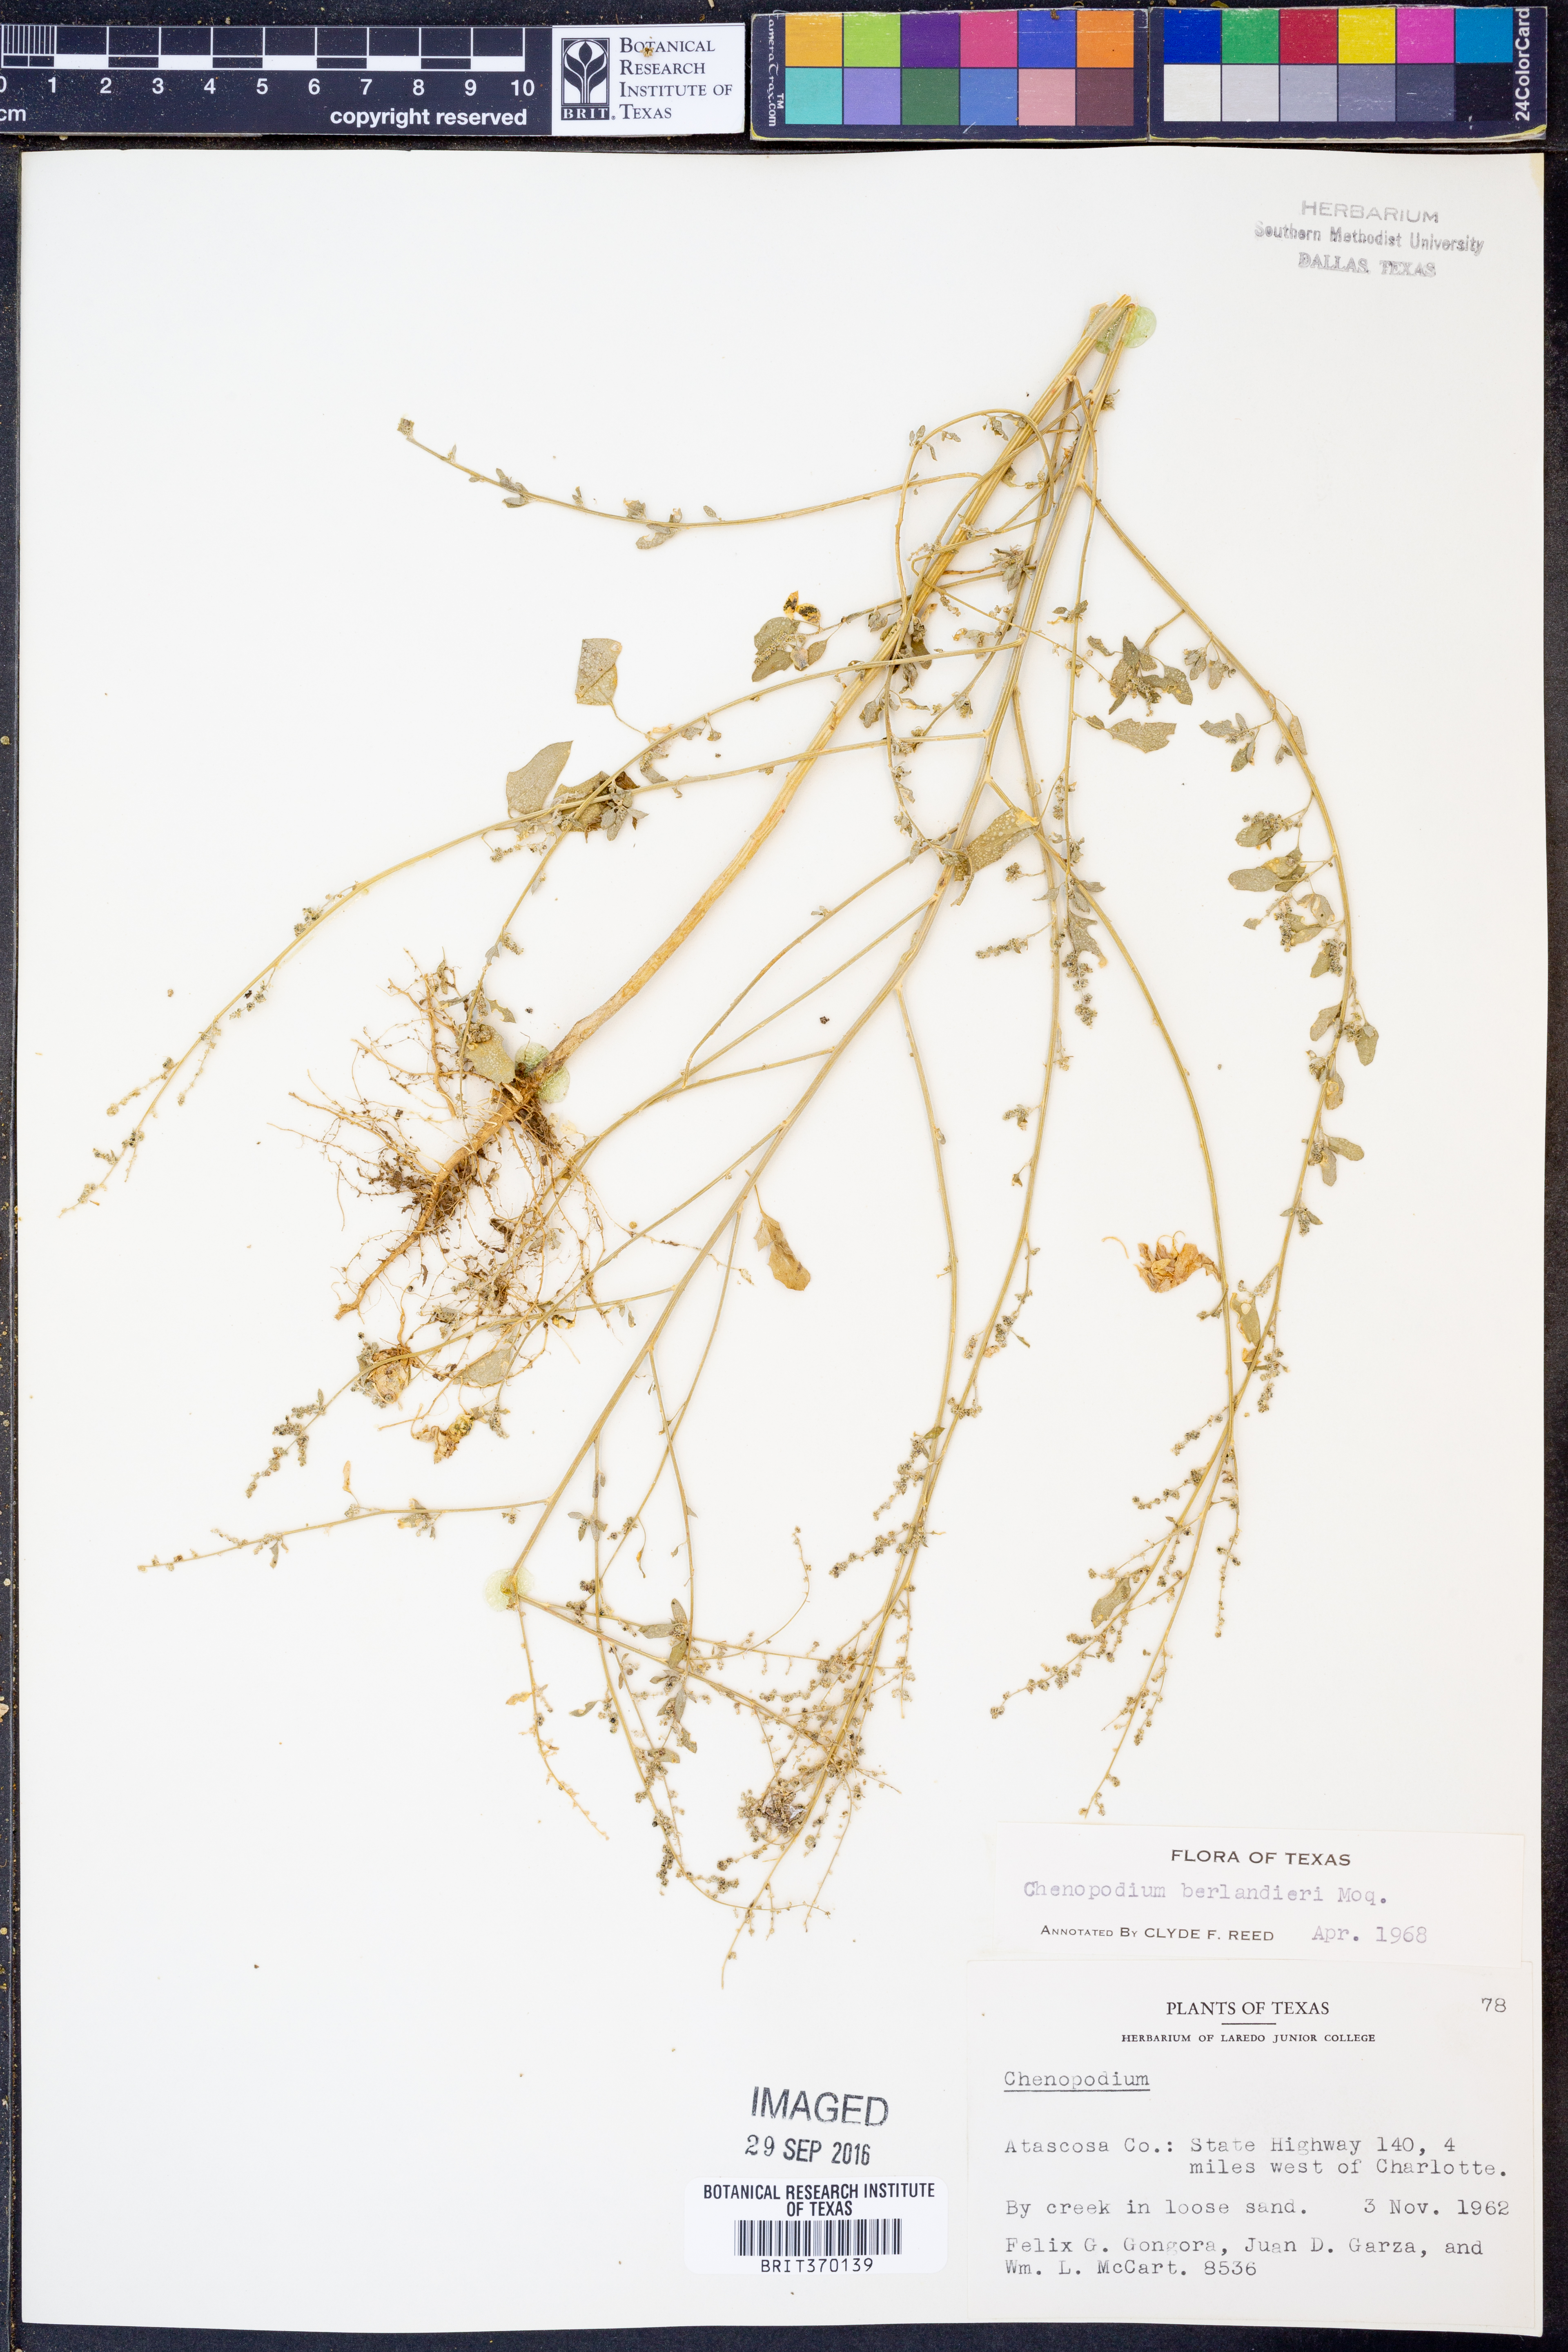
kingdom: Plantae
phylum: Tracheophyta
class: Magnoliopsida
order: Caryophyllales
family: Amaranthaceae
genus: Chenopodium
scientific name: Chenopodium berlandieri
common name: Pit-seed goosefoot
